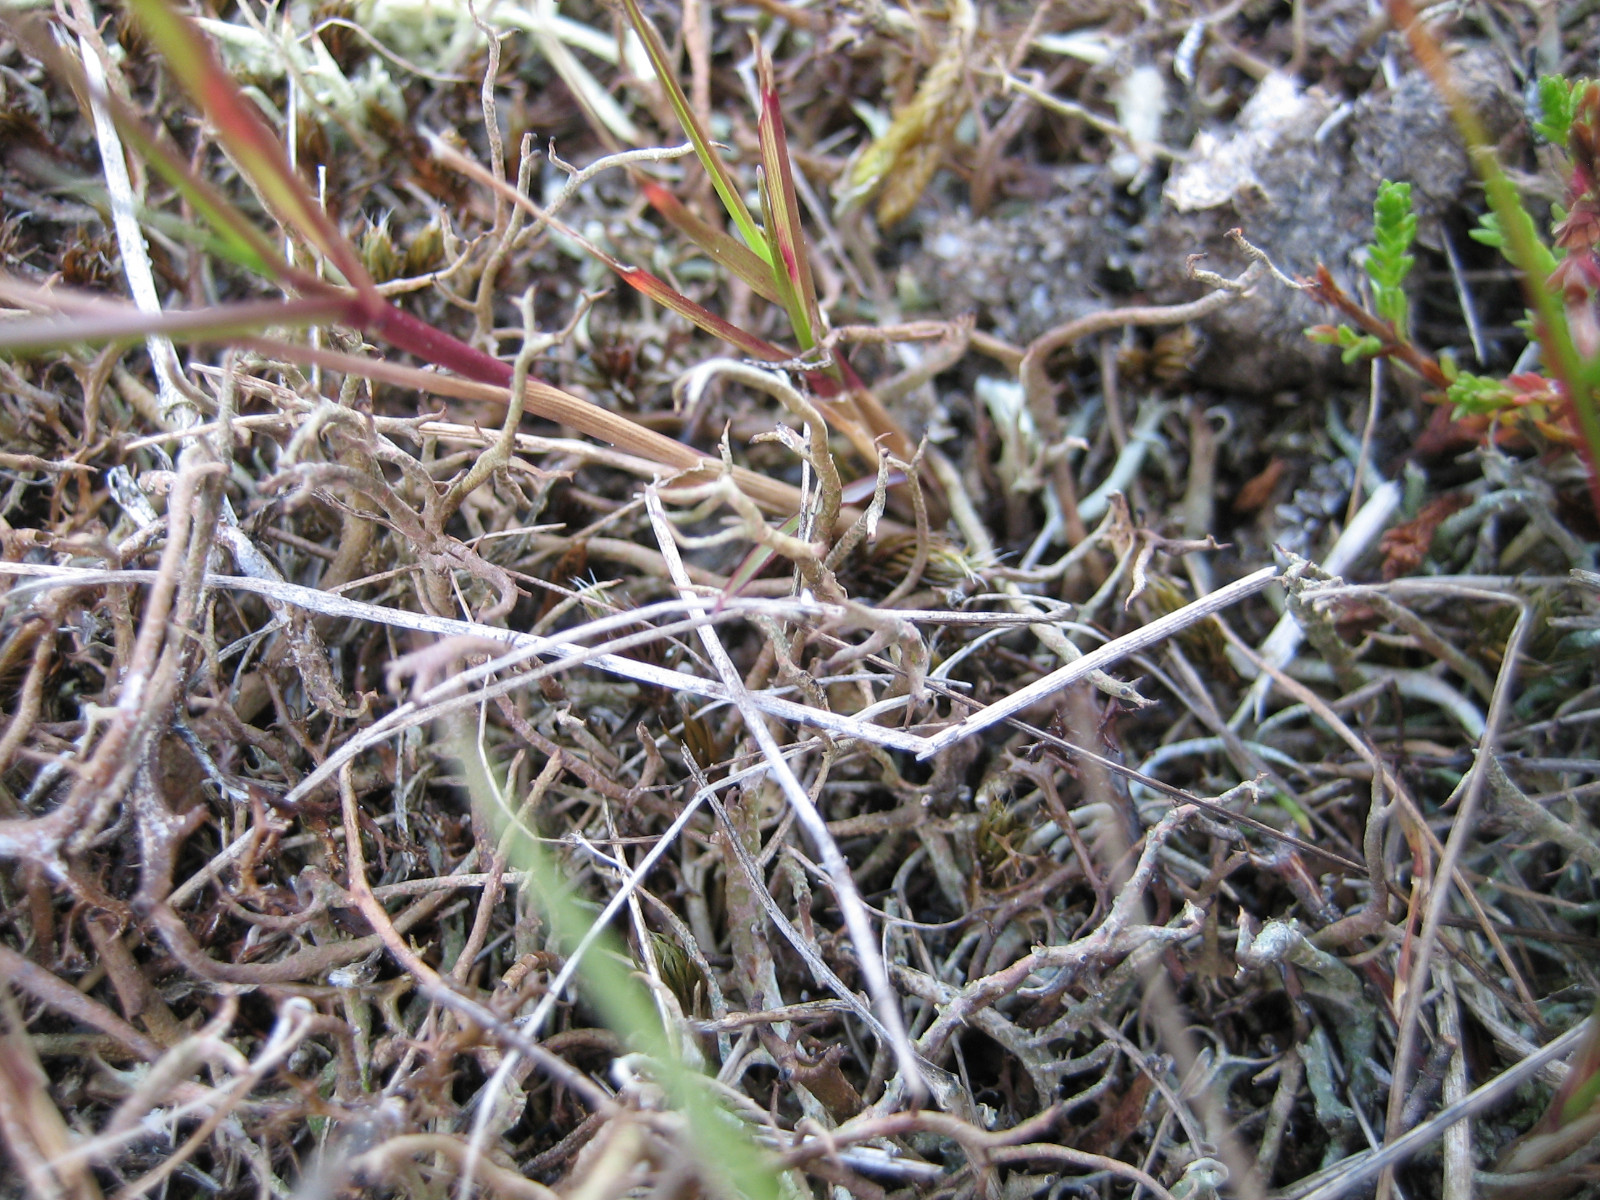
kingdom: Fungi
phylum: Ascomycota
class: Lecanoromycetes
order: Lecanorales
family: Cladoniaceae
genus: Cladonia
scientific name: Cladonia furcata
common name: kløftet bægerlav
